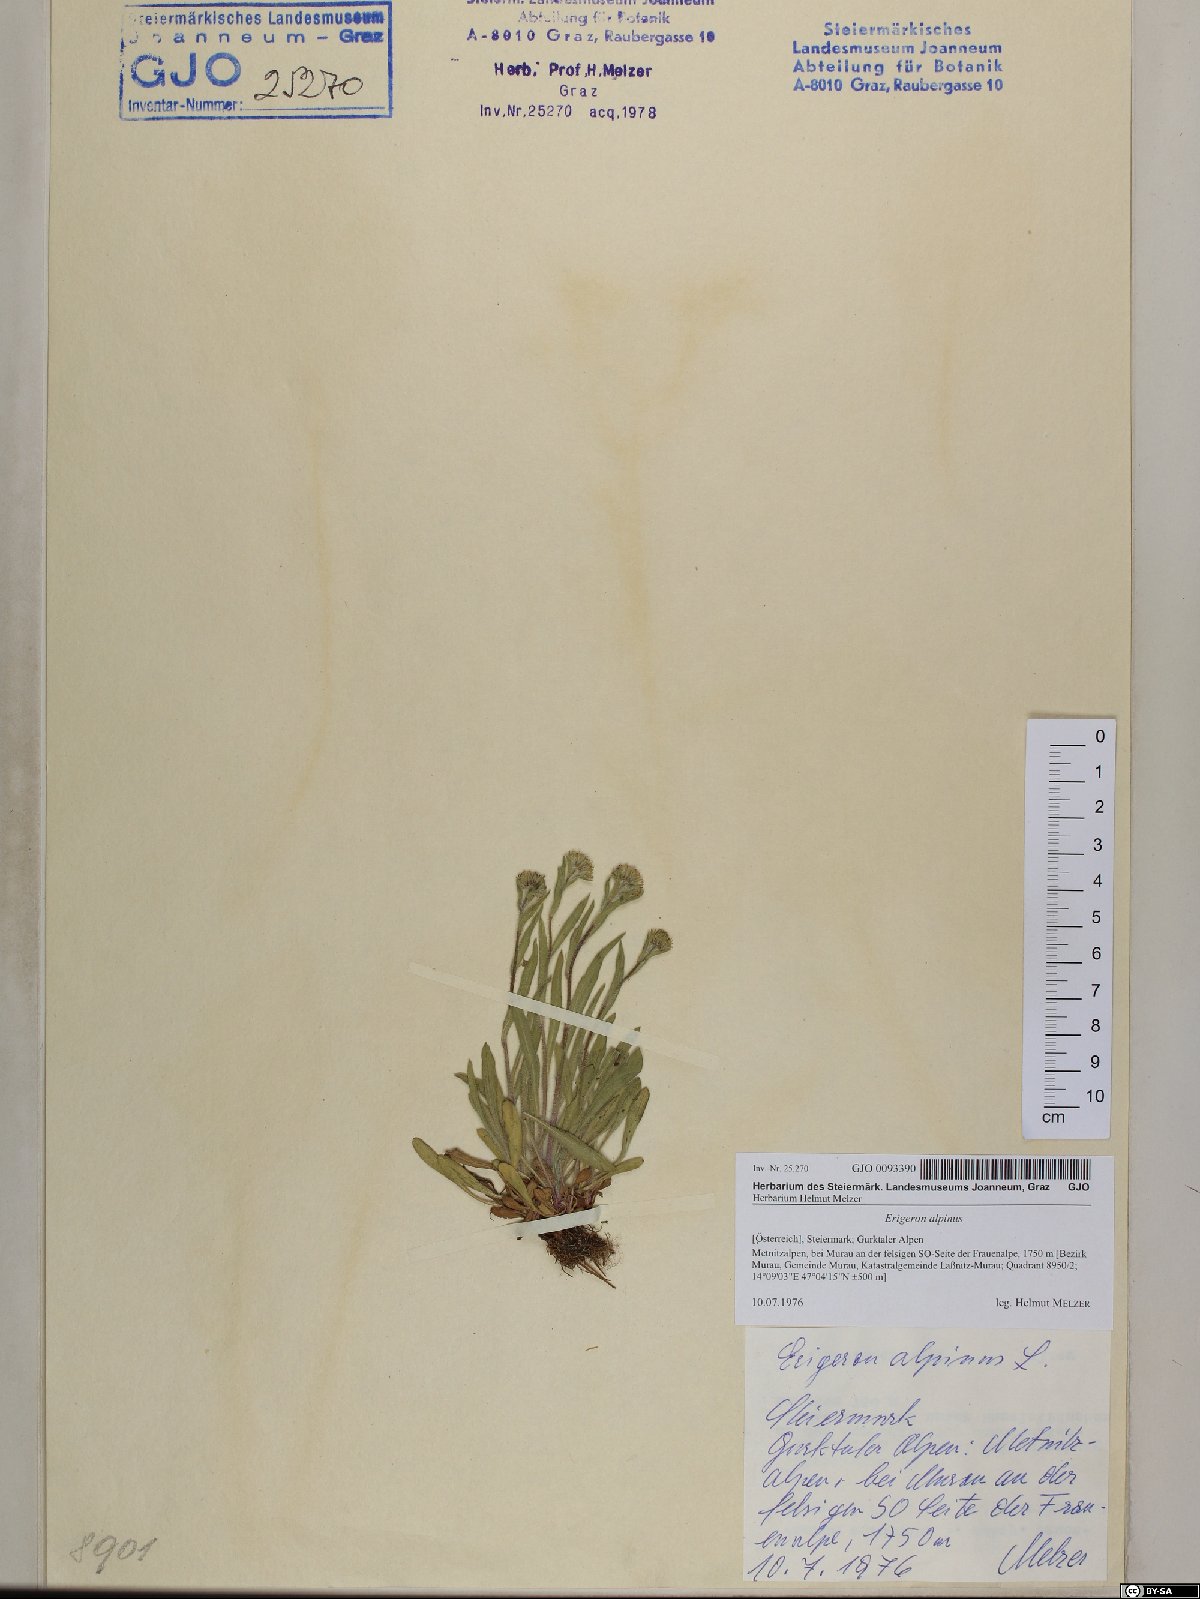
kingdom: Plantae
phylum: Tracheophyta
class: Magnoliopsida
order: Asterales
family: Asteraceae
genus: Erigeron
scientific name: Erigeron alpinus
